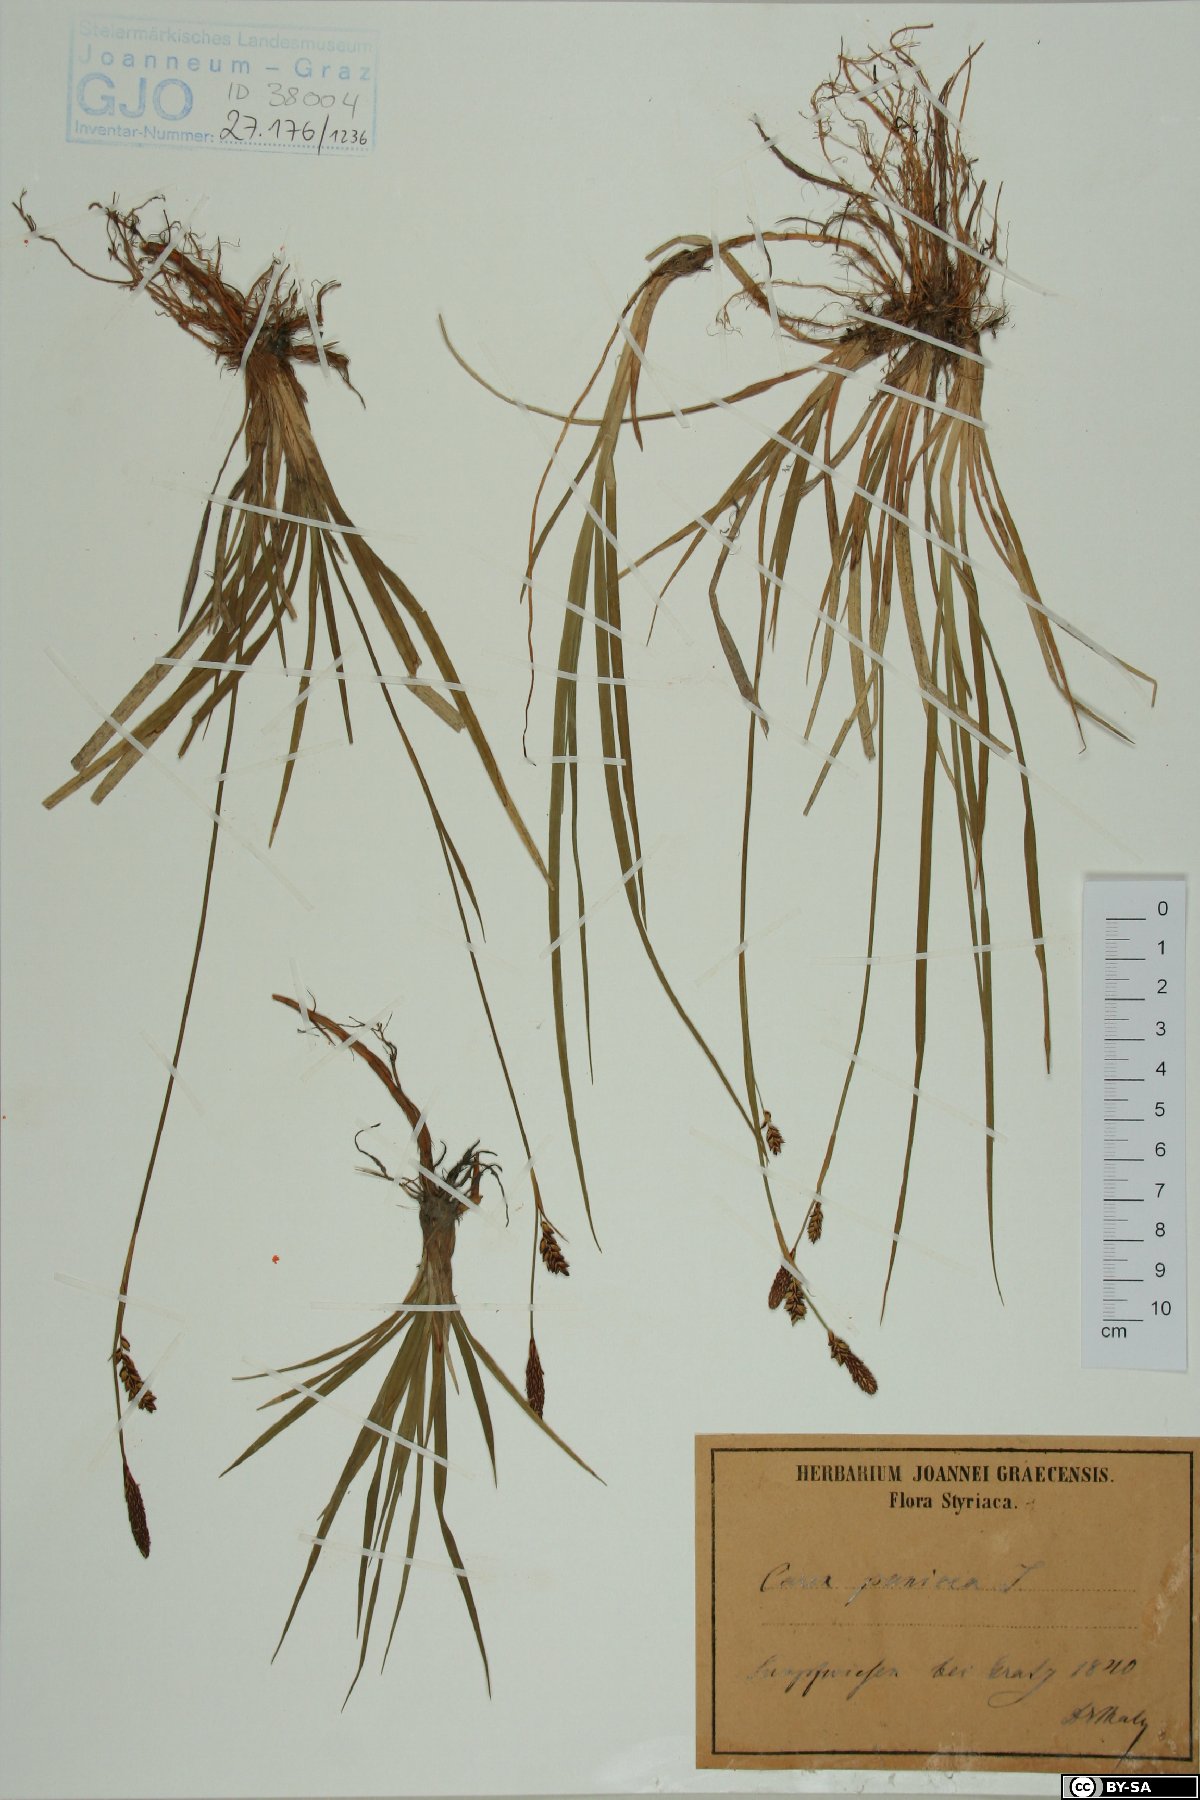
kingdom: Plantae
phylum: Tracheophyta
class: Liliopsida
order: Poales
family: Cyperaceae
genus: Carex
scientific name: Carex panicea
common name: Carnation sedge
